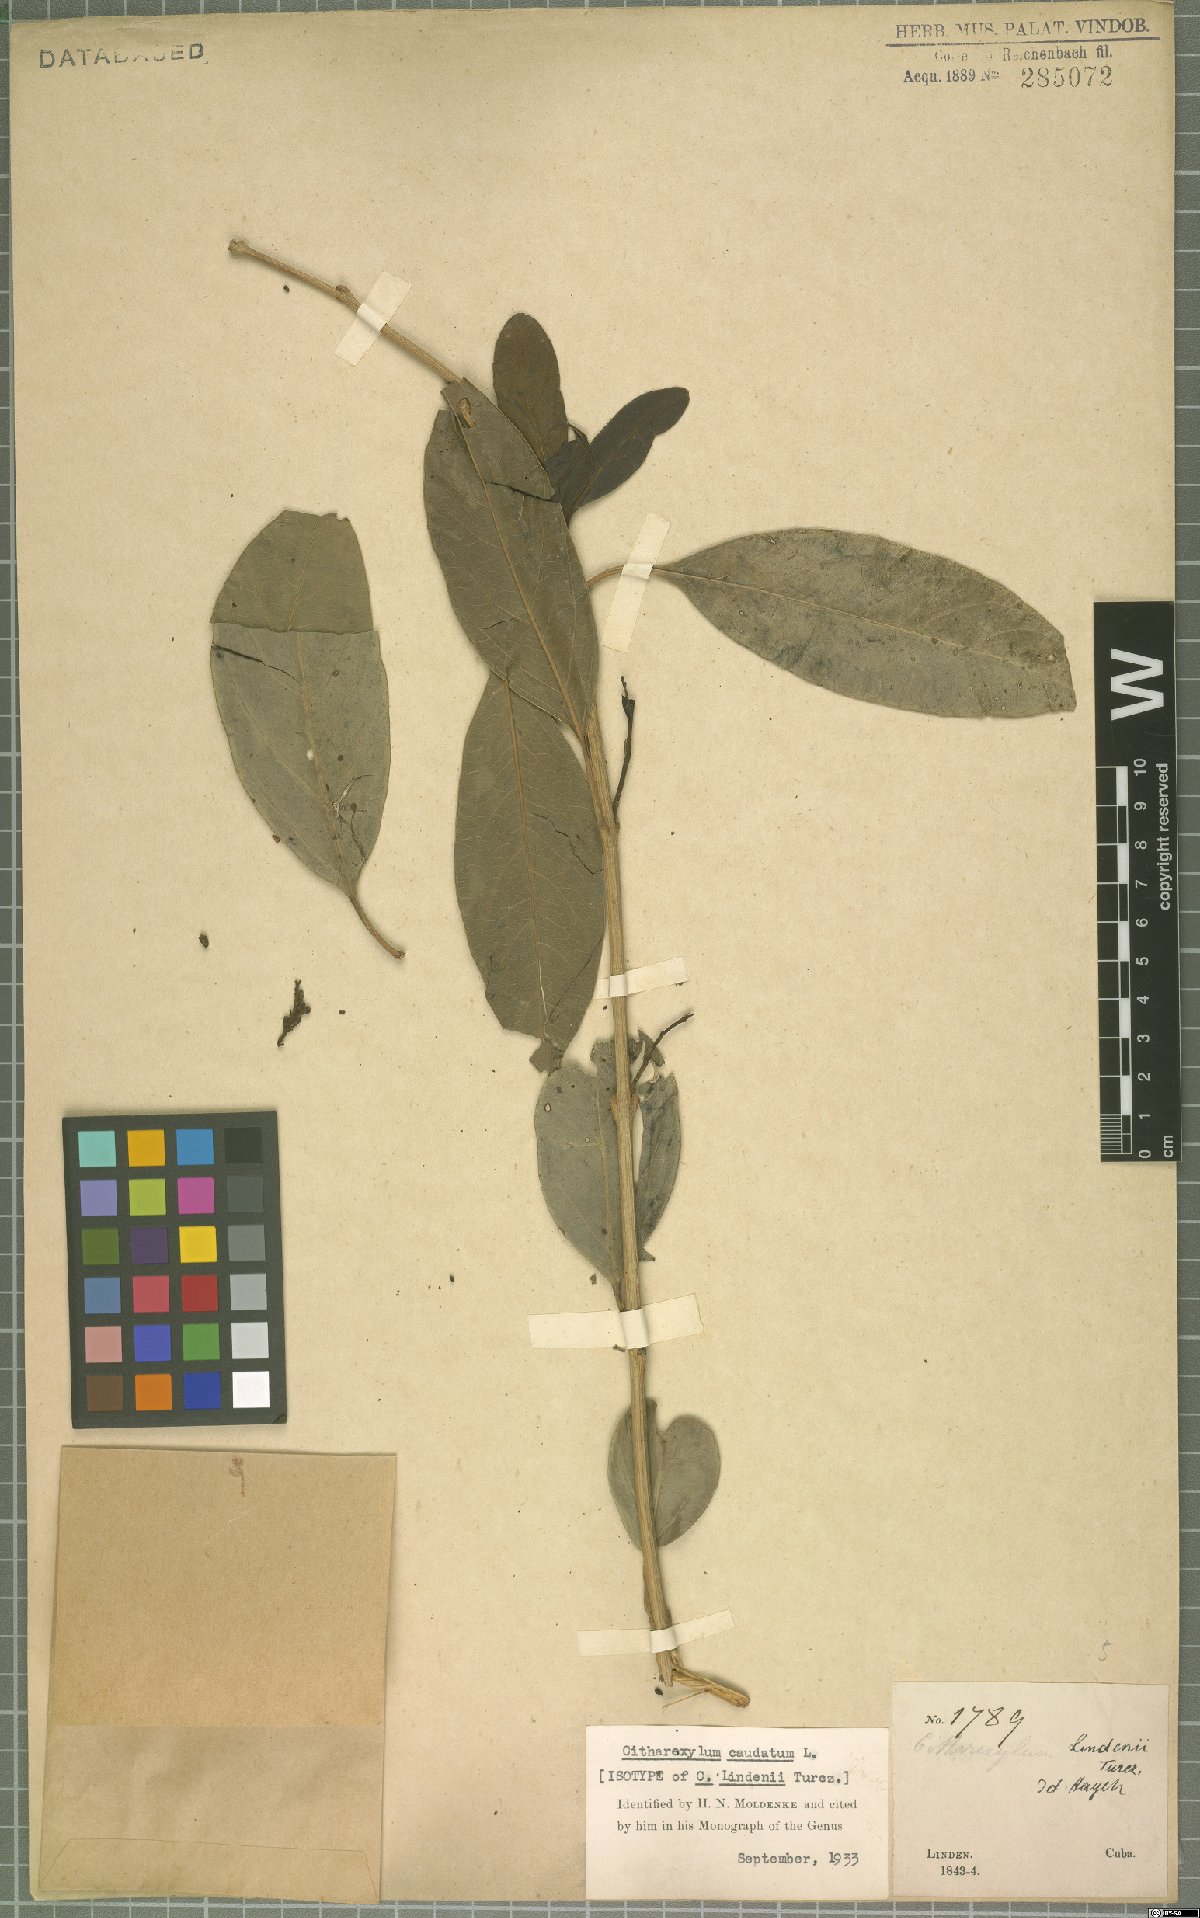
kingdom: Plantae
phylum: Tracheophyta
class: Magnoliopsida
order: Lamiales
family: Verbenaceae
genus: Citharexylum
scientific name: Citharexylum caudatum
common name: Fiddlewood
